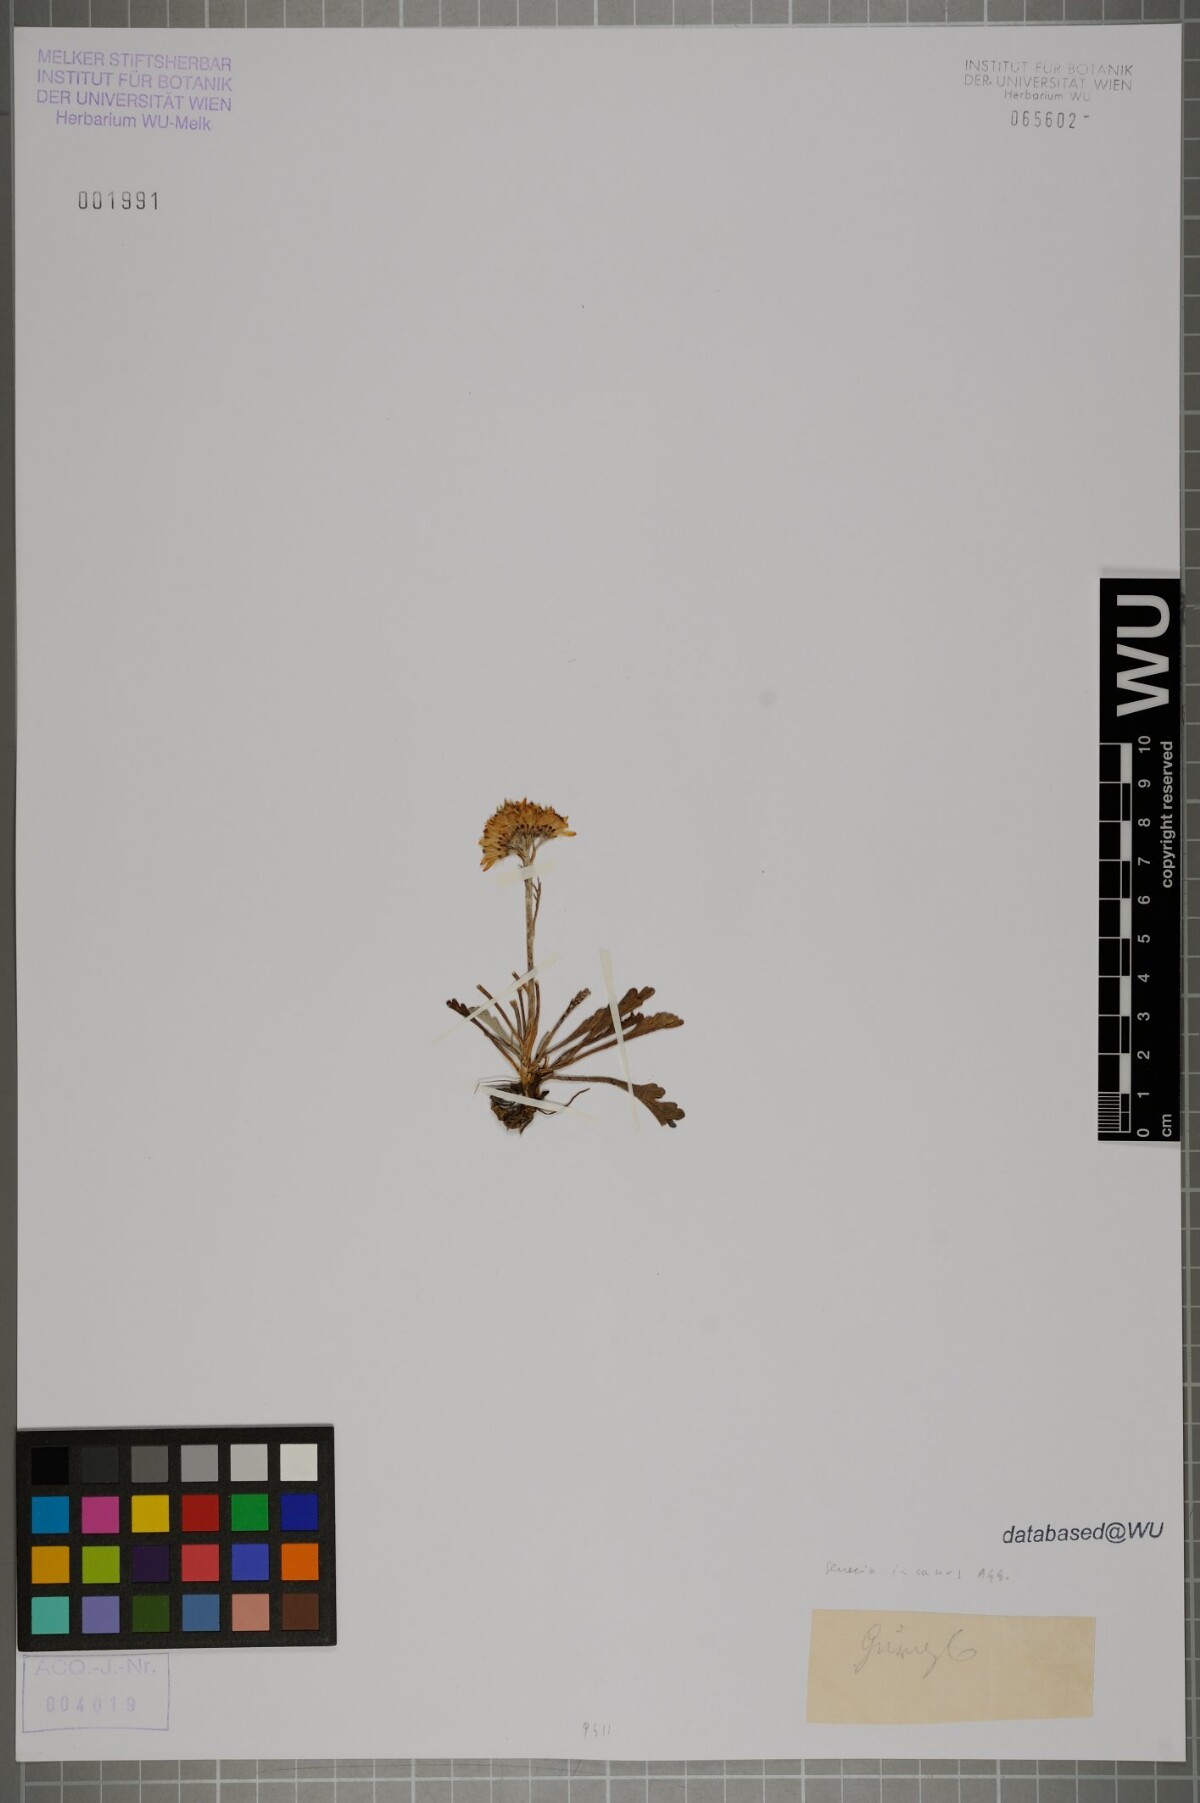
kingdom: Plantae
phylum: Tracheophyta
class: Magnoliopsida
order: Asterales
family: Asteraceae
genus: Jacobaea
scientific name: Jacobaea incana
